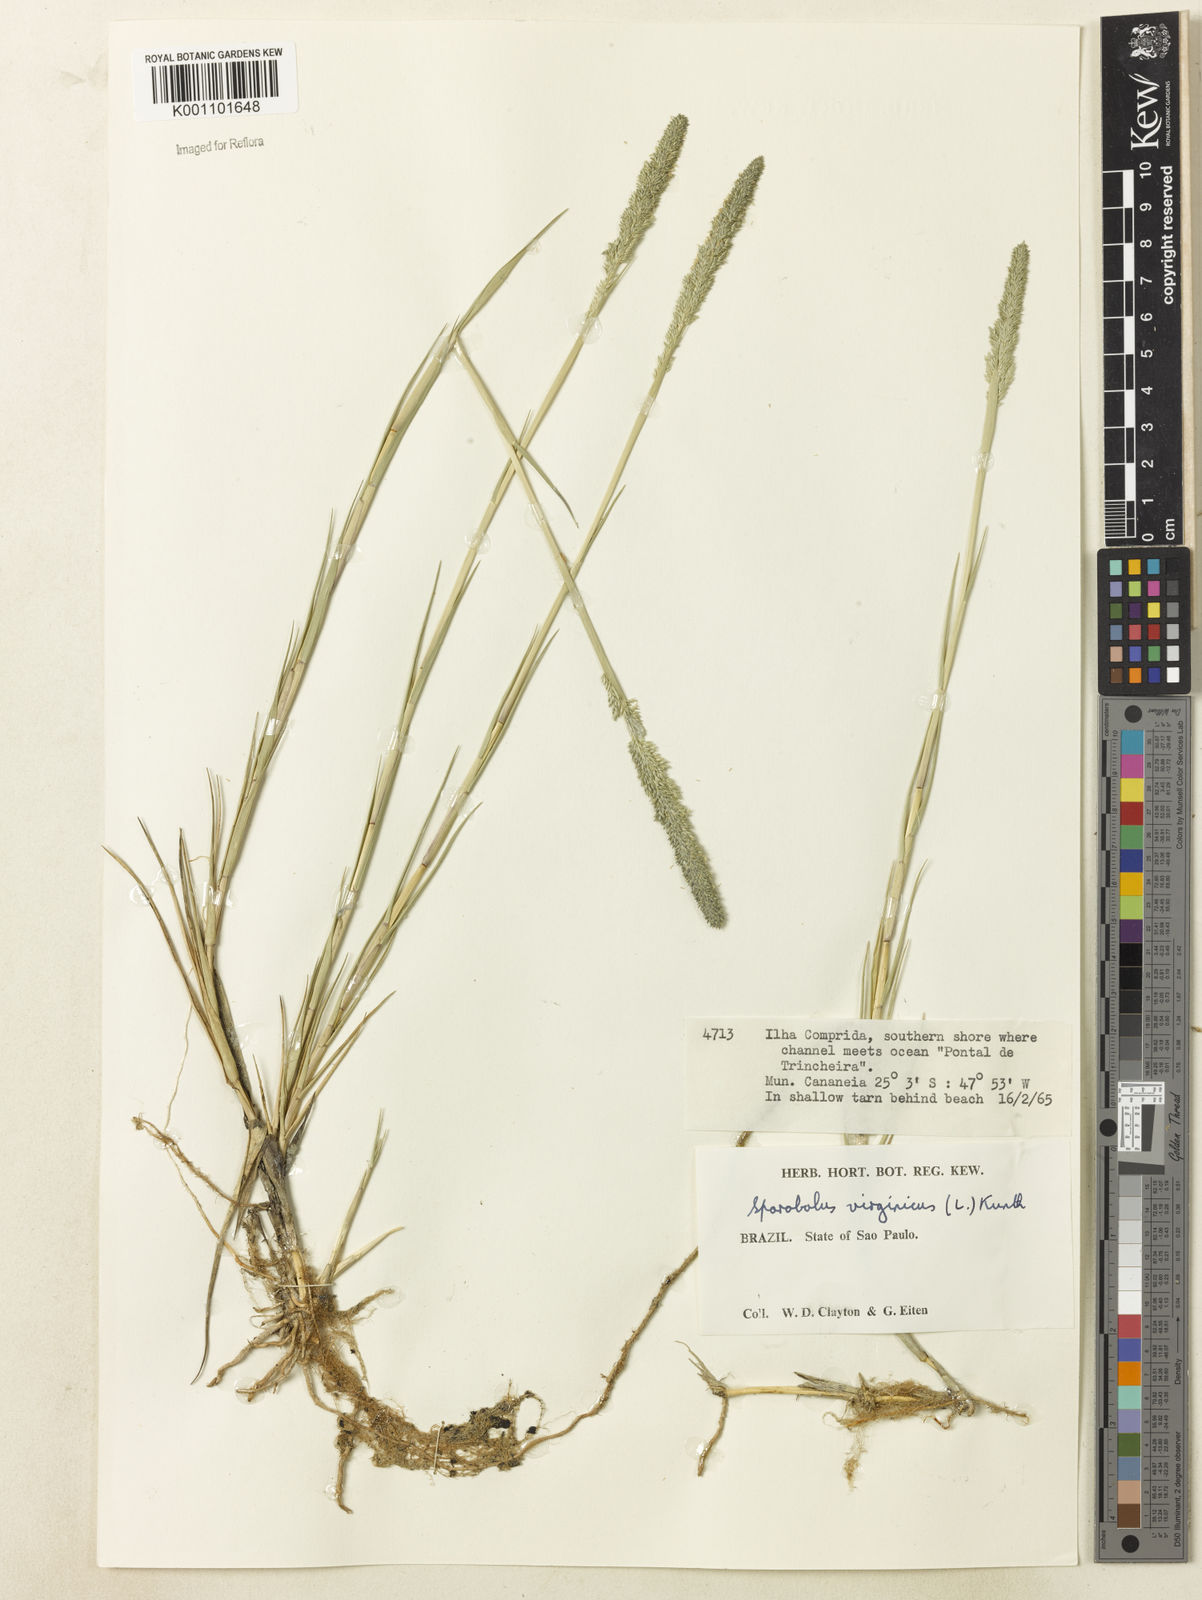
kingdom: Plantae
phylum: Tracheophyta
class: Liliopsida
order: Poales
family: Poaceae
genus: Sporobolus
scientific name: Sporobolus virginicus
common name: Beach dropseed
